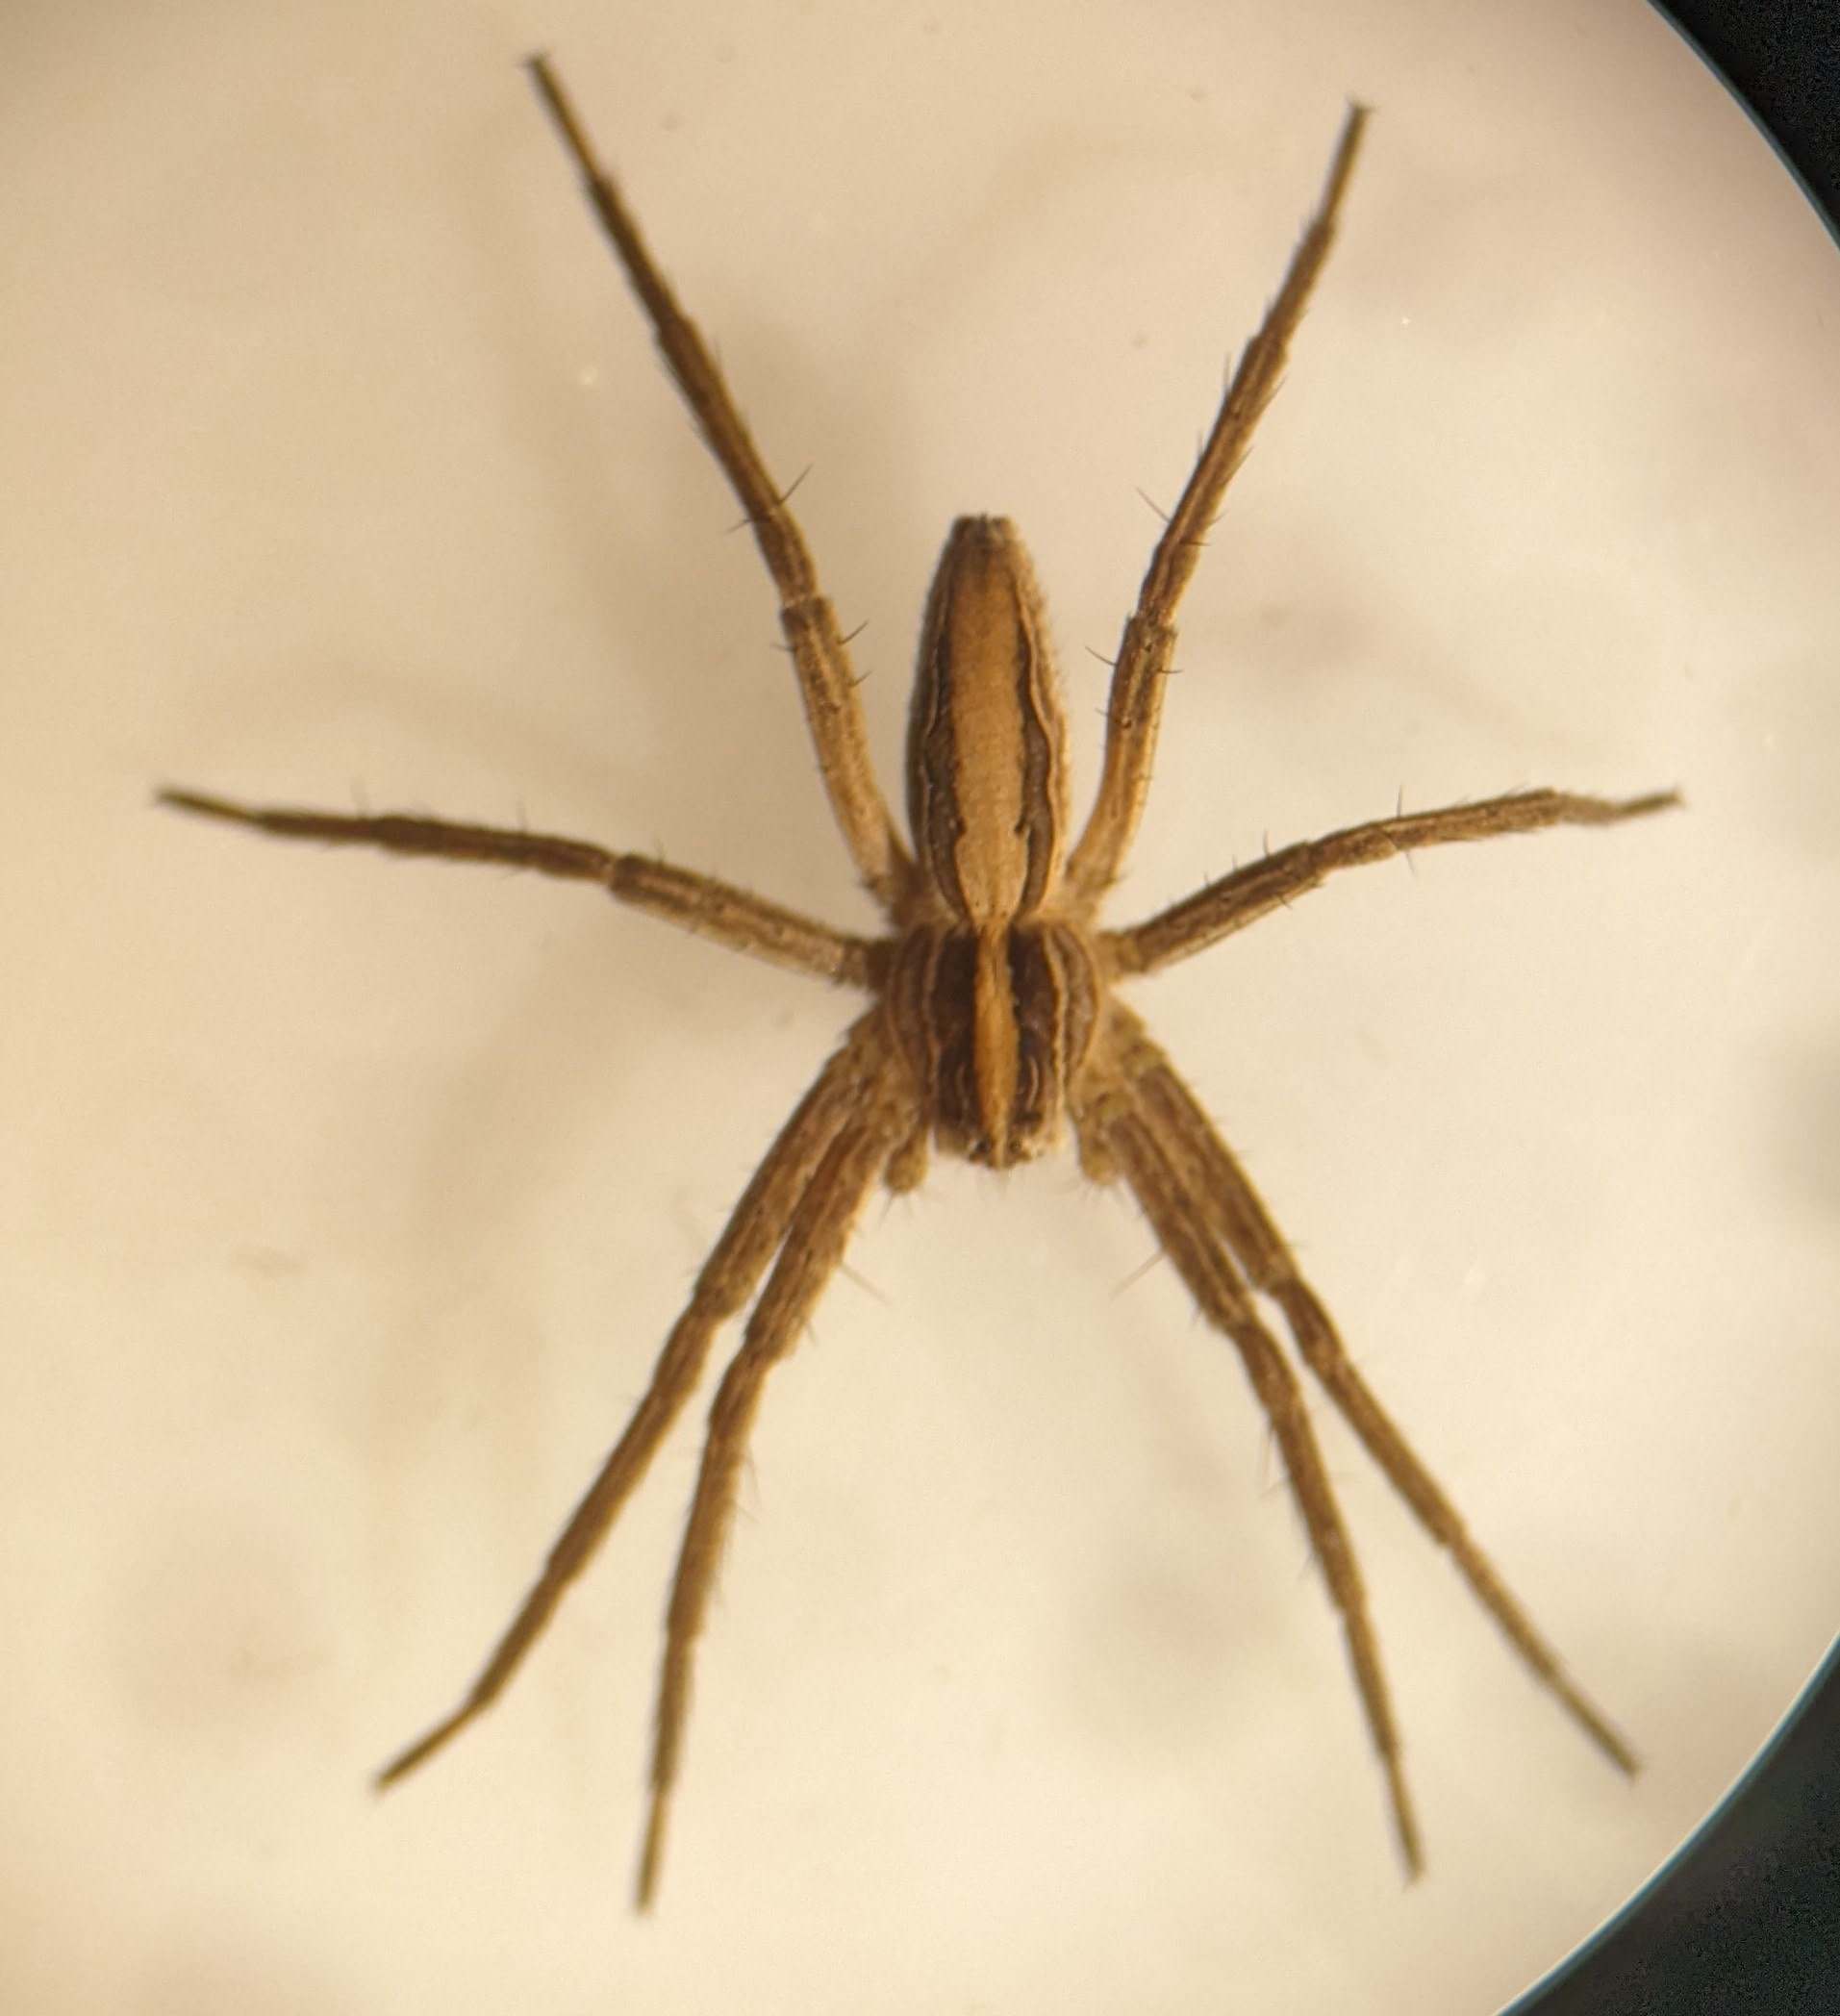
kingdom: Animalia
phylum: Arthropoda
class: Arachnida
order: Araneae
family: Pisauridae
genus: Pisaura
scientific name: Pisaura mirabilis
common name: Almindelig rovedderkop
